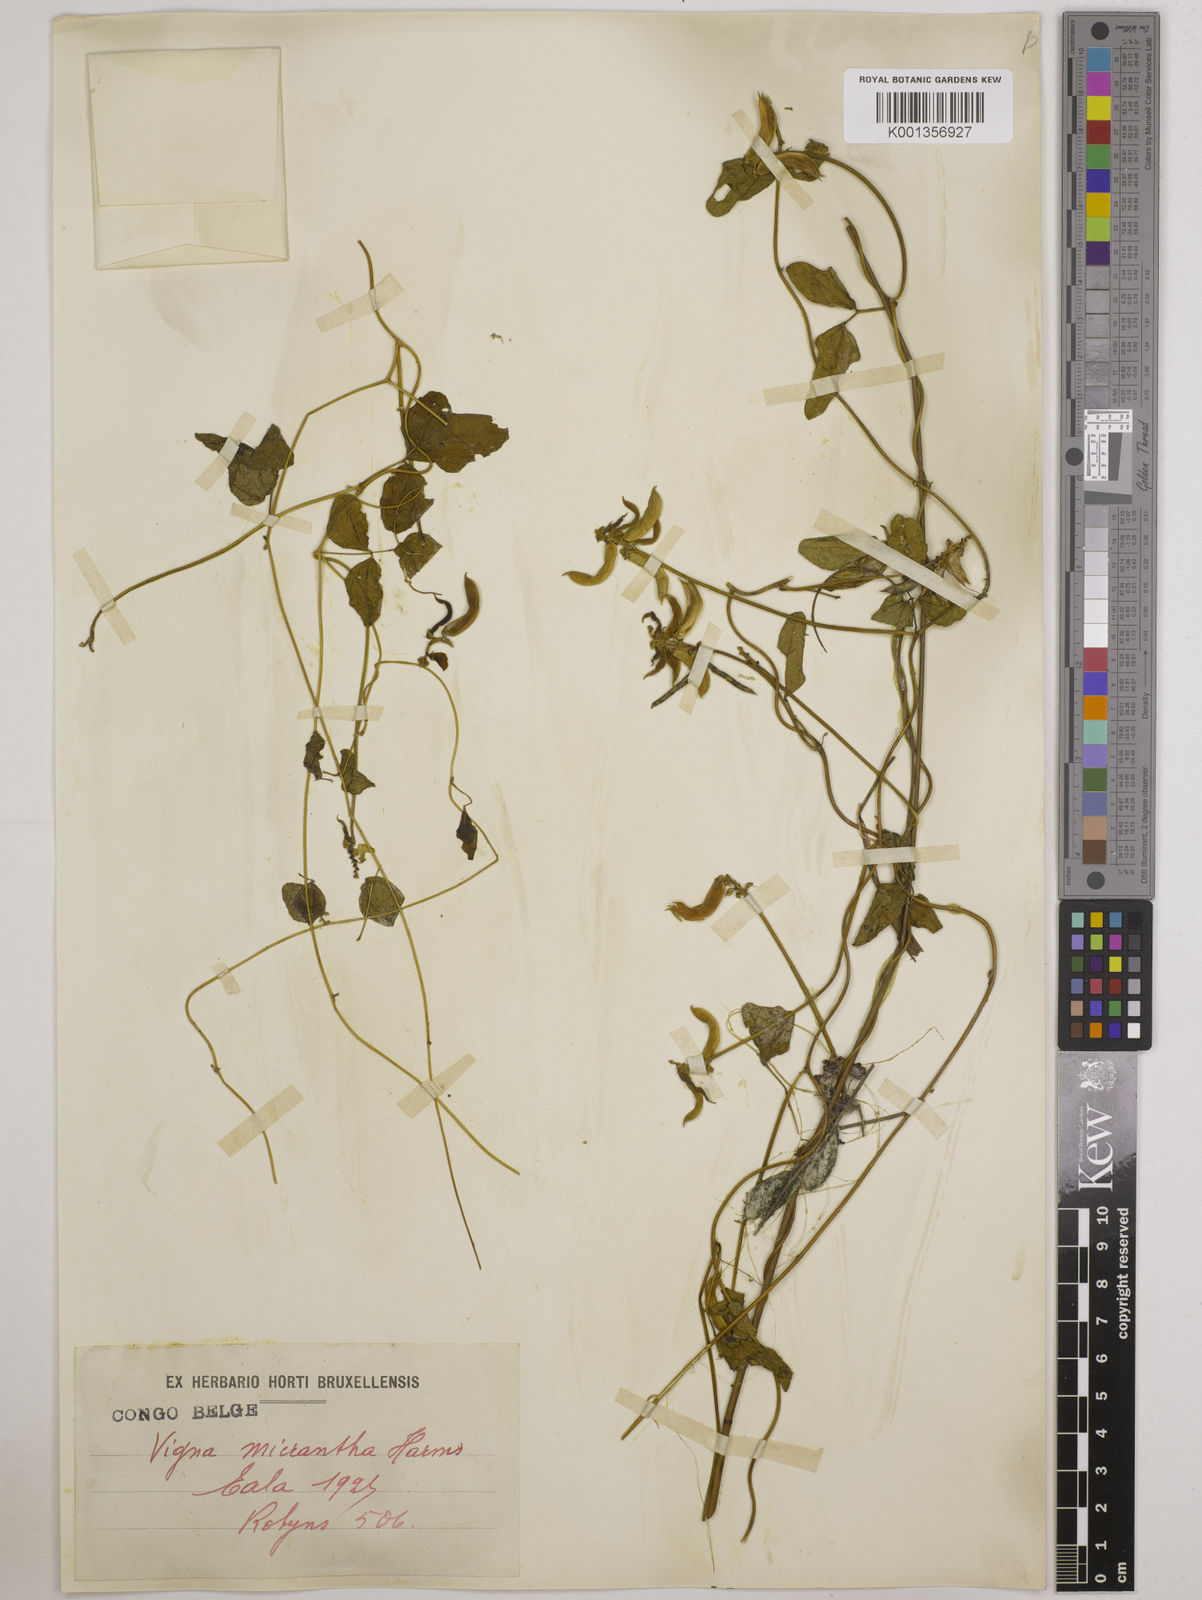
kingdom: Plantae
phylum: Tracheophyta
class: Magnoliopsida
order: Fabales
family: Fabaceae
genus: Vigna
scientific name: Vigna comosa
